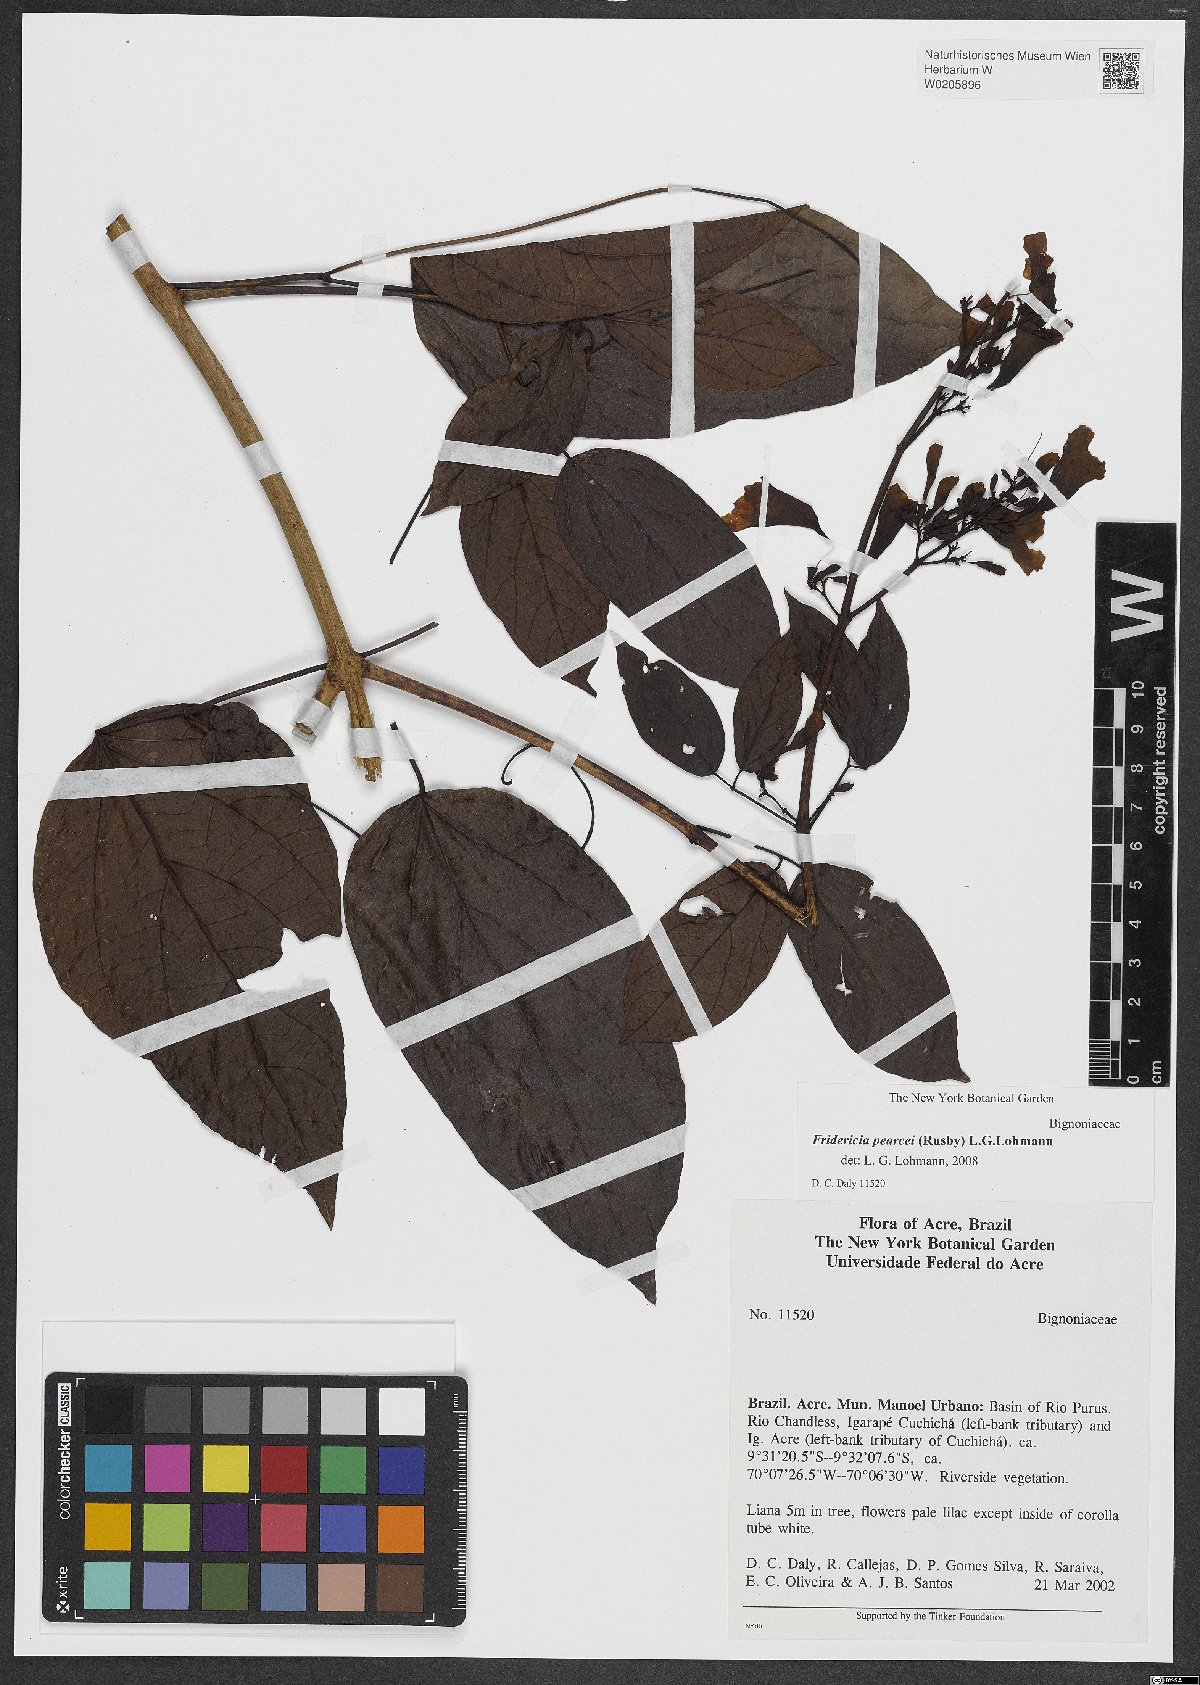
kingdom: Plantae
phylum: Tracheophyta
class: Magnoliopsida
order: Lamiales
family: Bignoniaceae
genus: Fridericia
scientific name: Fridericia arthrerion
